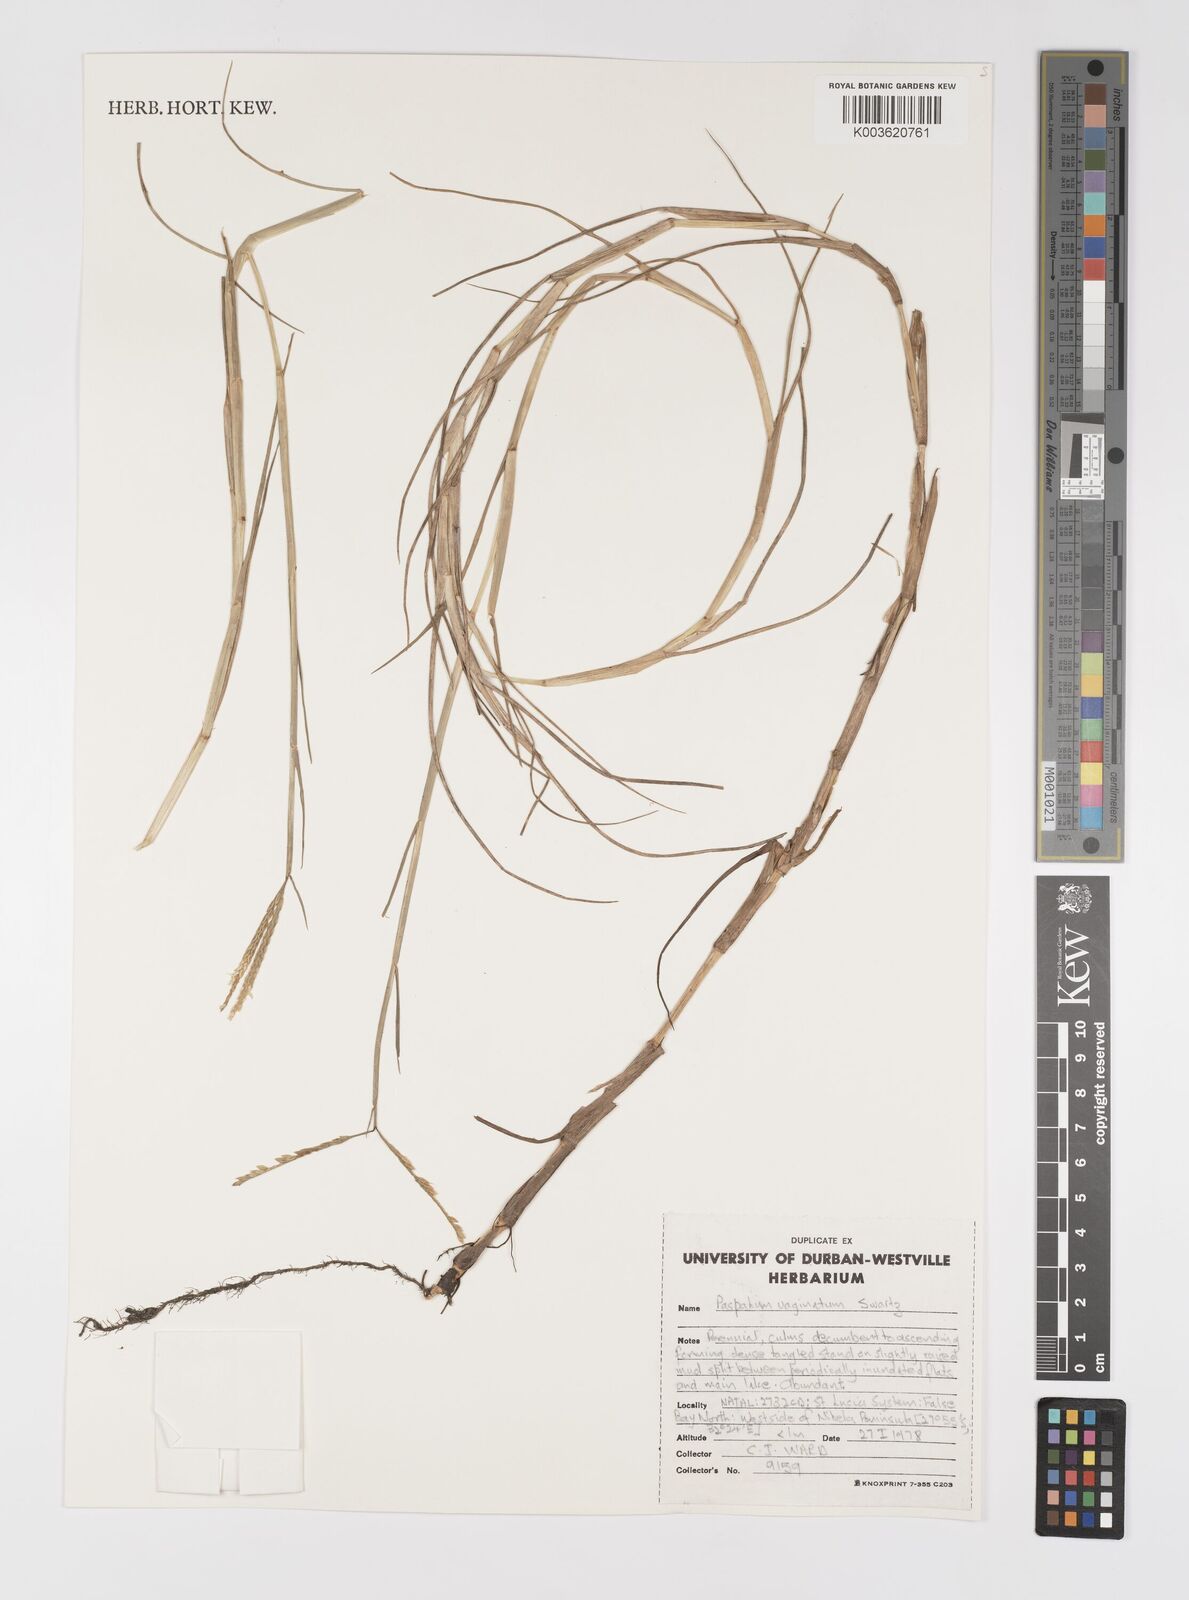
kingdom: Plantae
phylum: Tracheophyta
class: Liliopsida
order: Poales
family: Poaceae
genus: Paspalum
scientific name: Paspalum vaginatum
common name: Seashore paspalum
